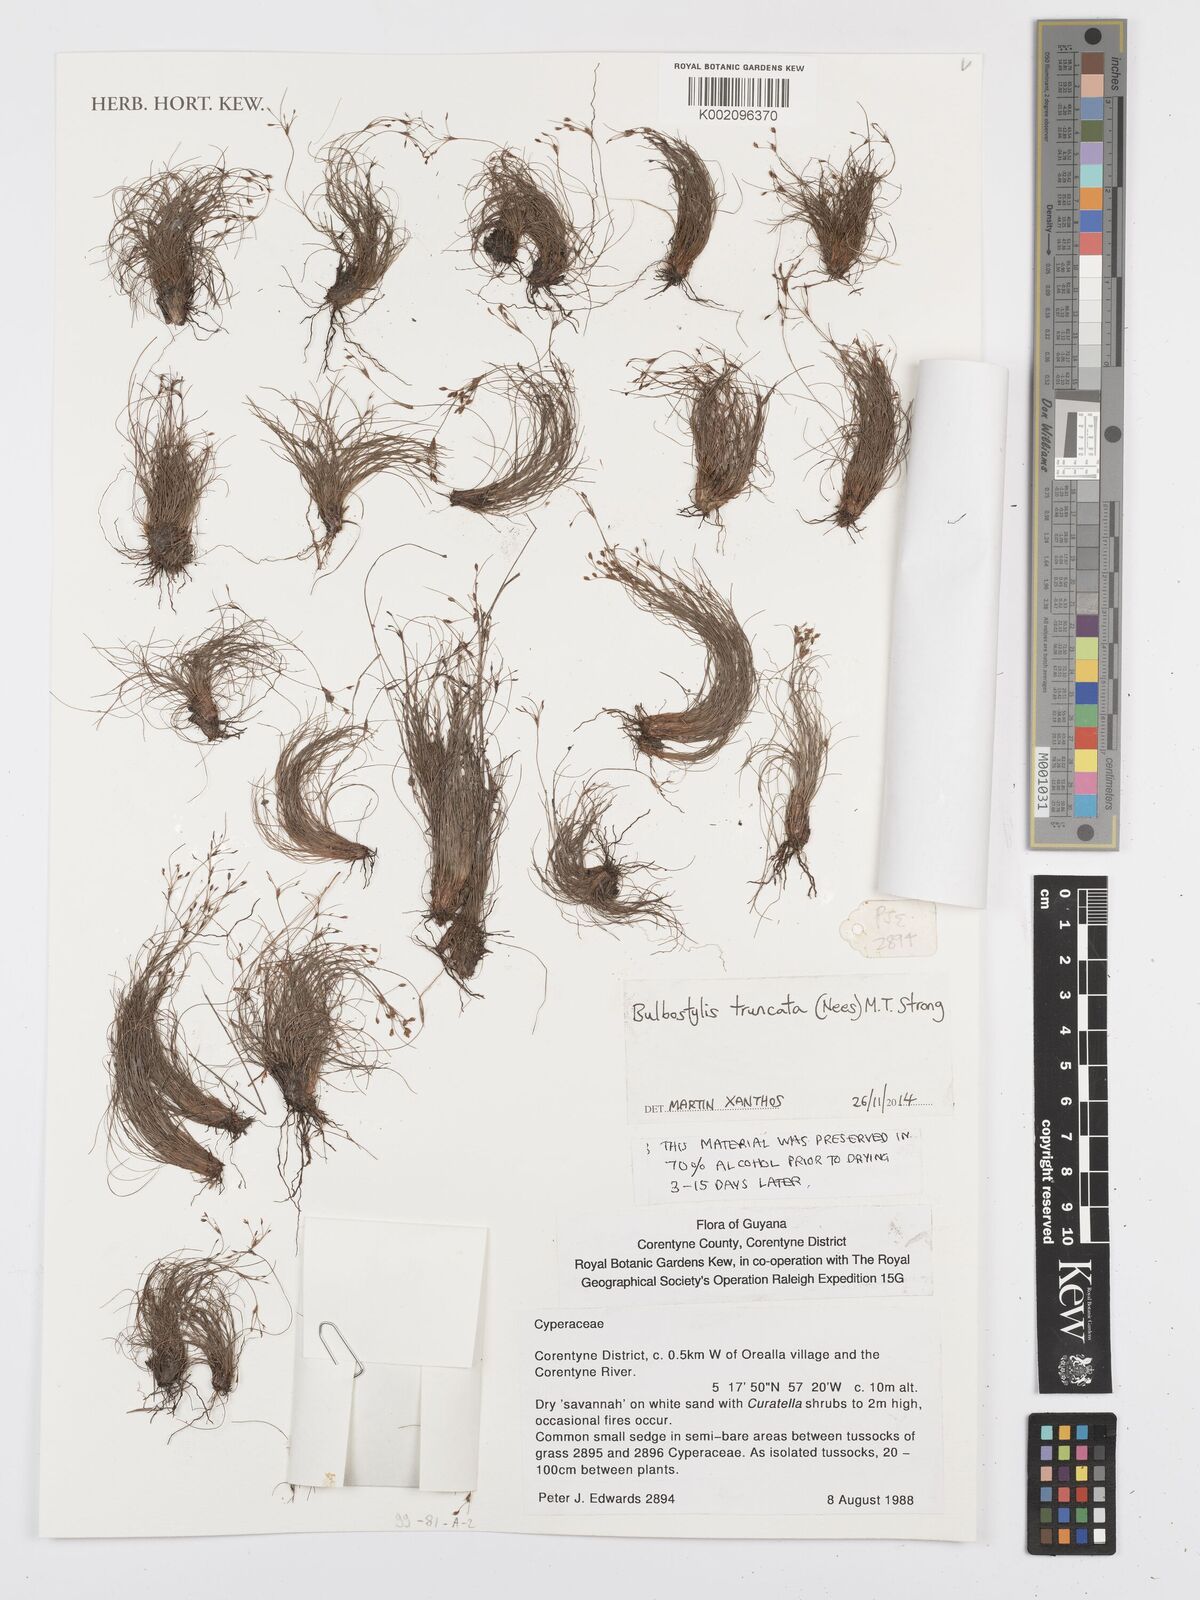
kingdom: Plantae
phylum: Tracheophyta
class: Liliopsida
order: Poales
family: Cyperaceae
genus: Bulbostylis
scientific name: Bulbostylis truncata
